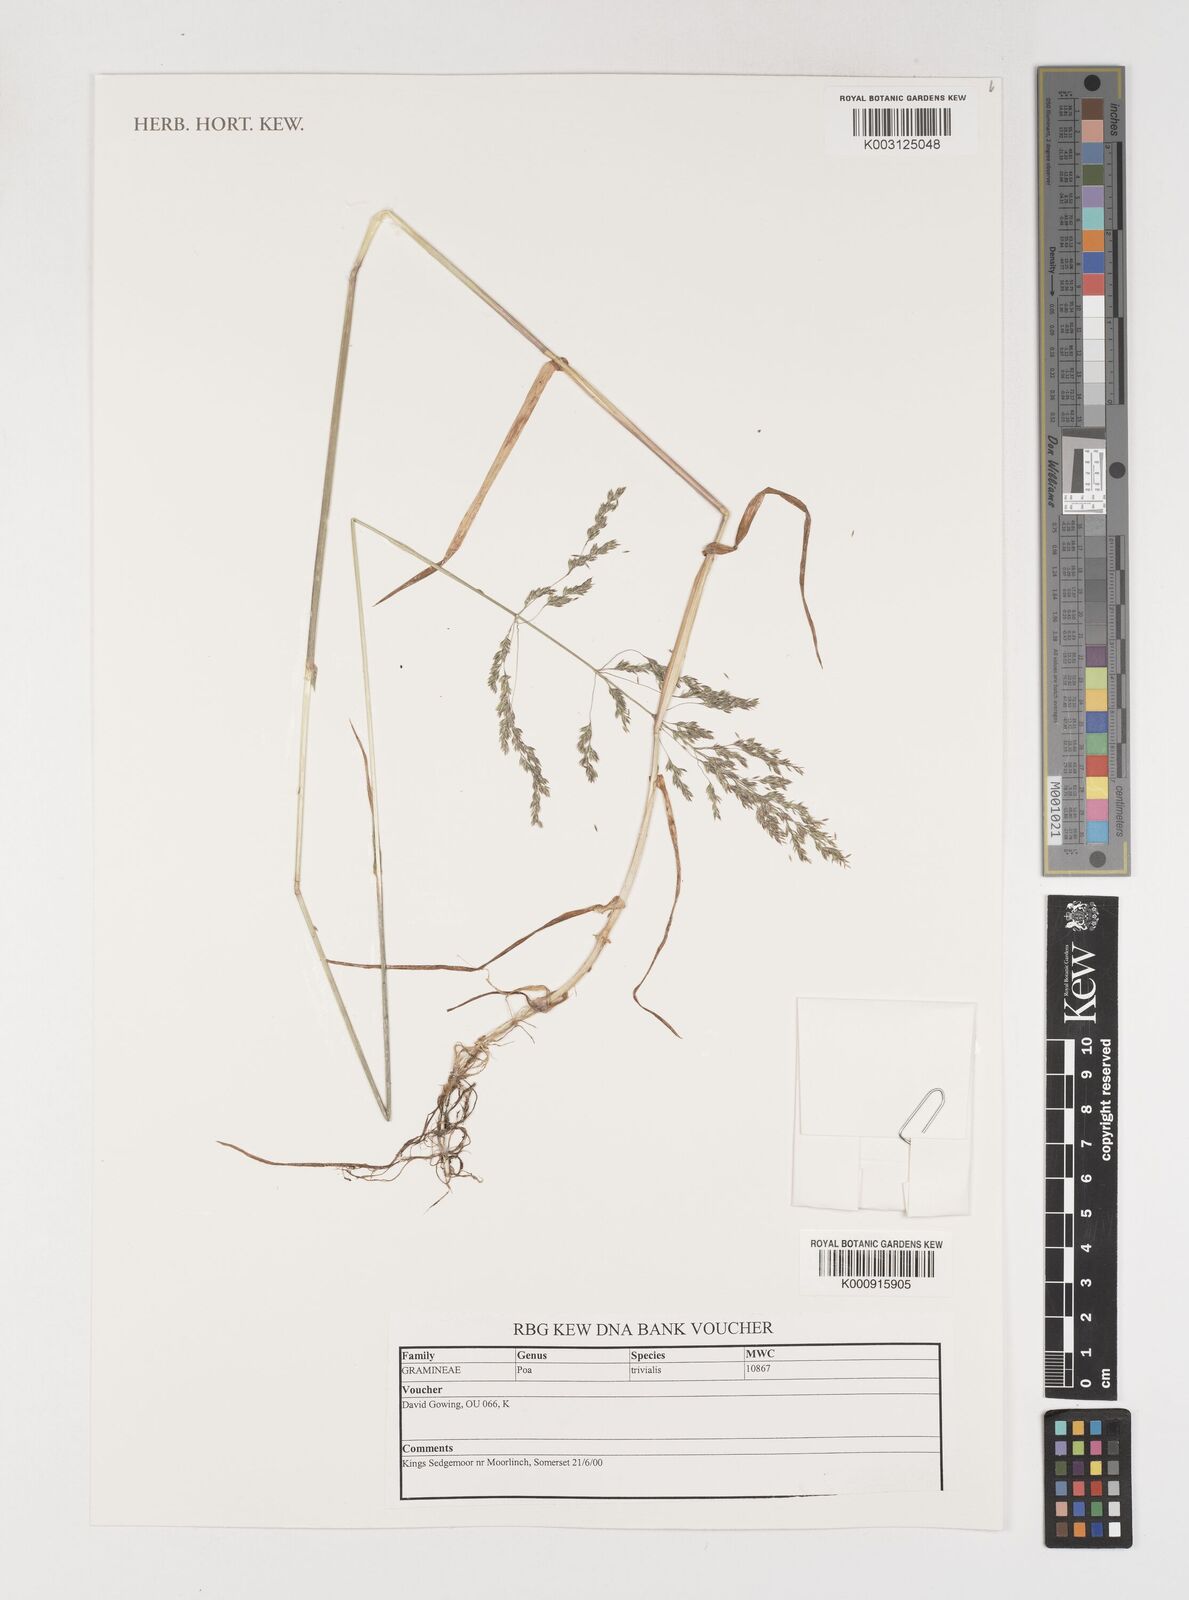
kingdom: Plantae
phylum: Tracheophyta
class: Liliopsida
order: Poales
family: Poaceae
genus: Poa
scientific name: Poa trivialis
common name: Rough bluegrass
